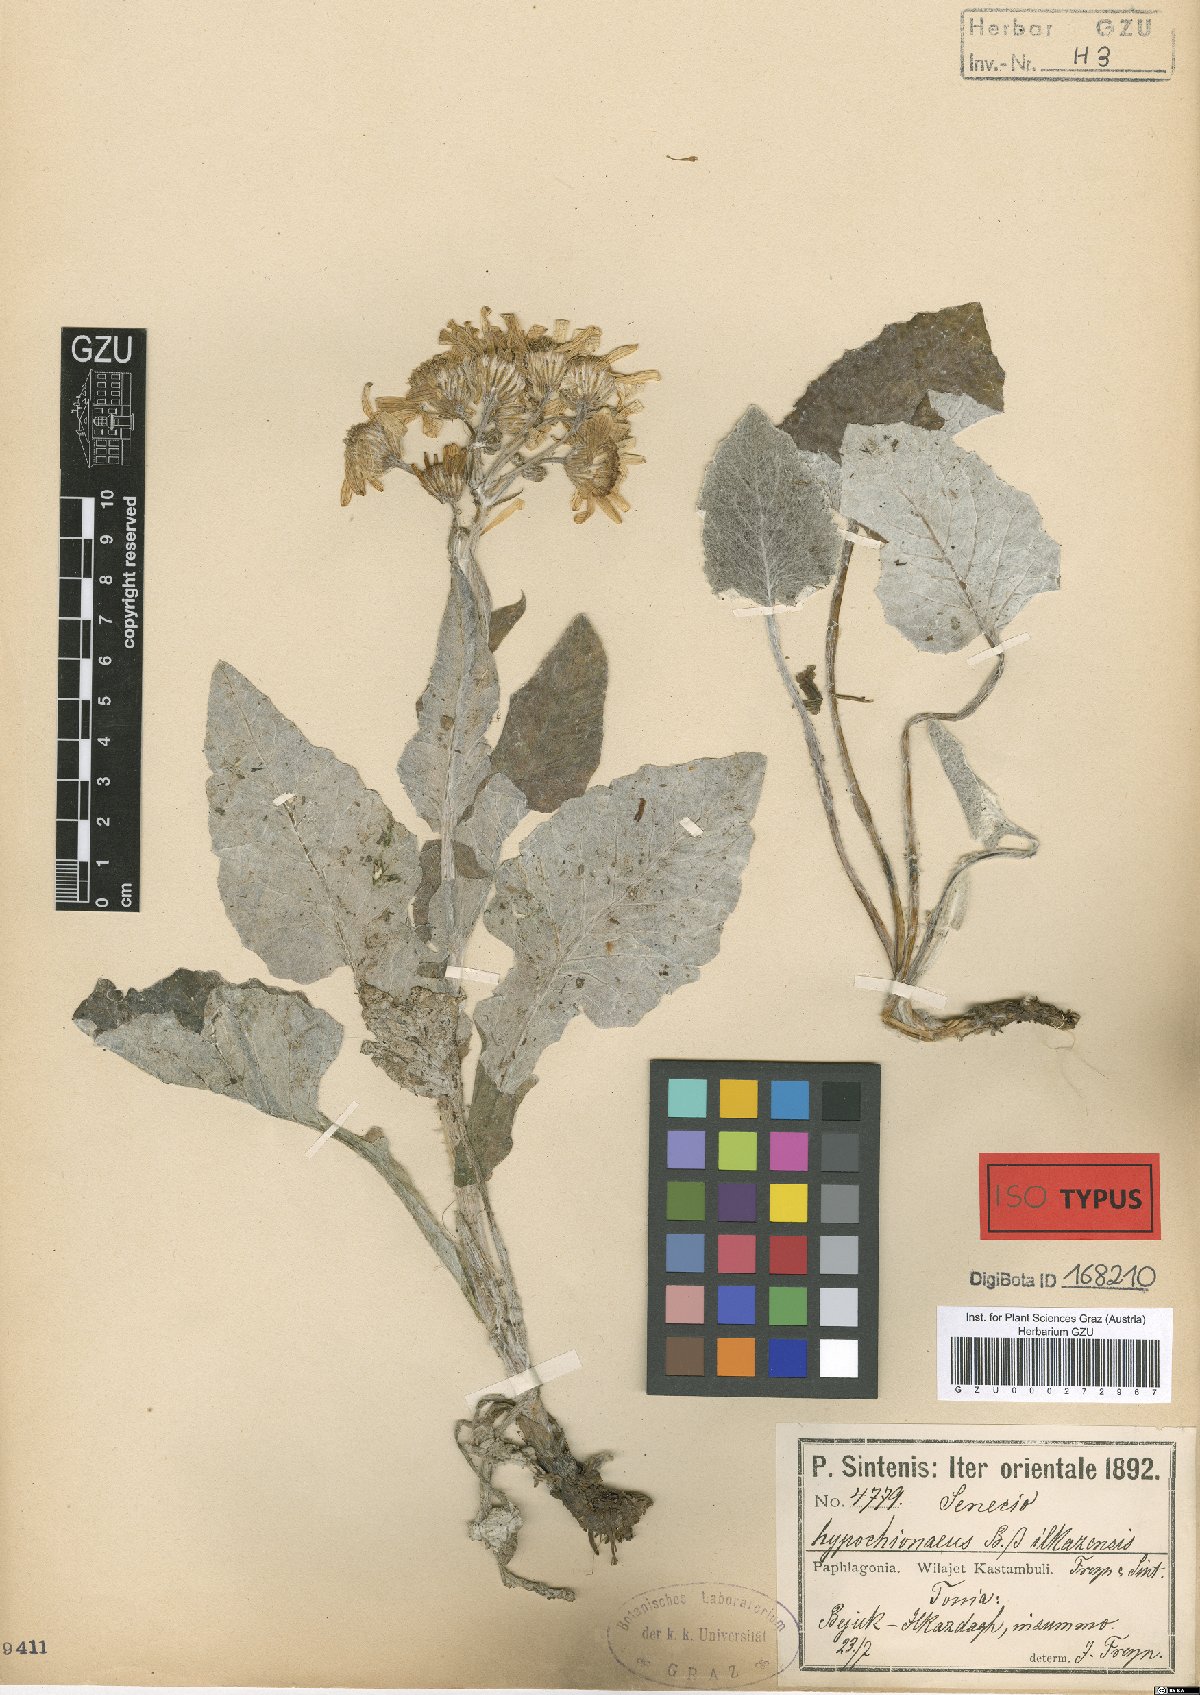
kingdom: Plantae
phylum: Tracheophyta
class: Magnoliopsida
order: Asterales
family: Asteraceae
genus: Turanecio
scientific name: Turanecio hypochionaeus
